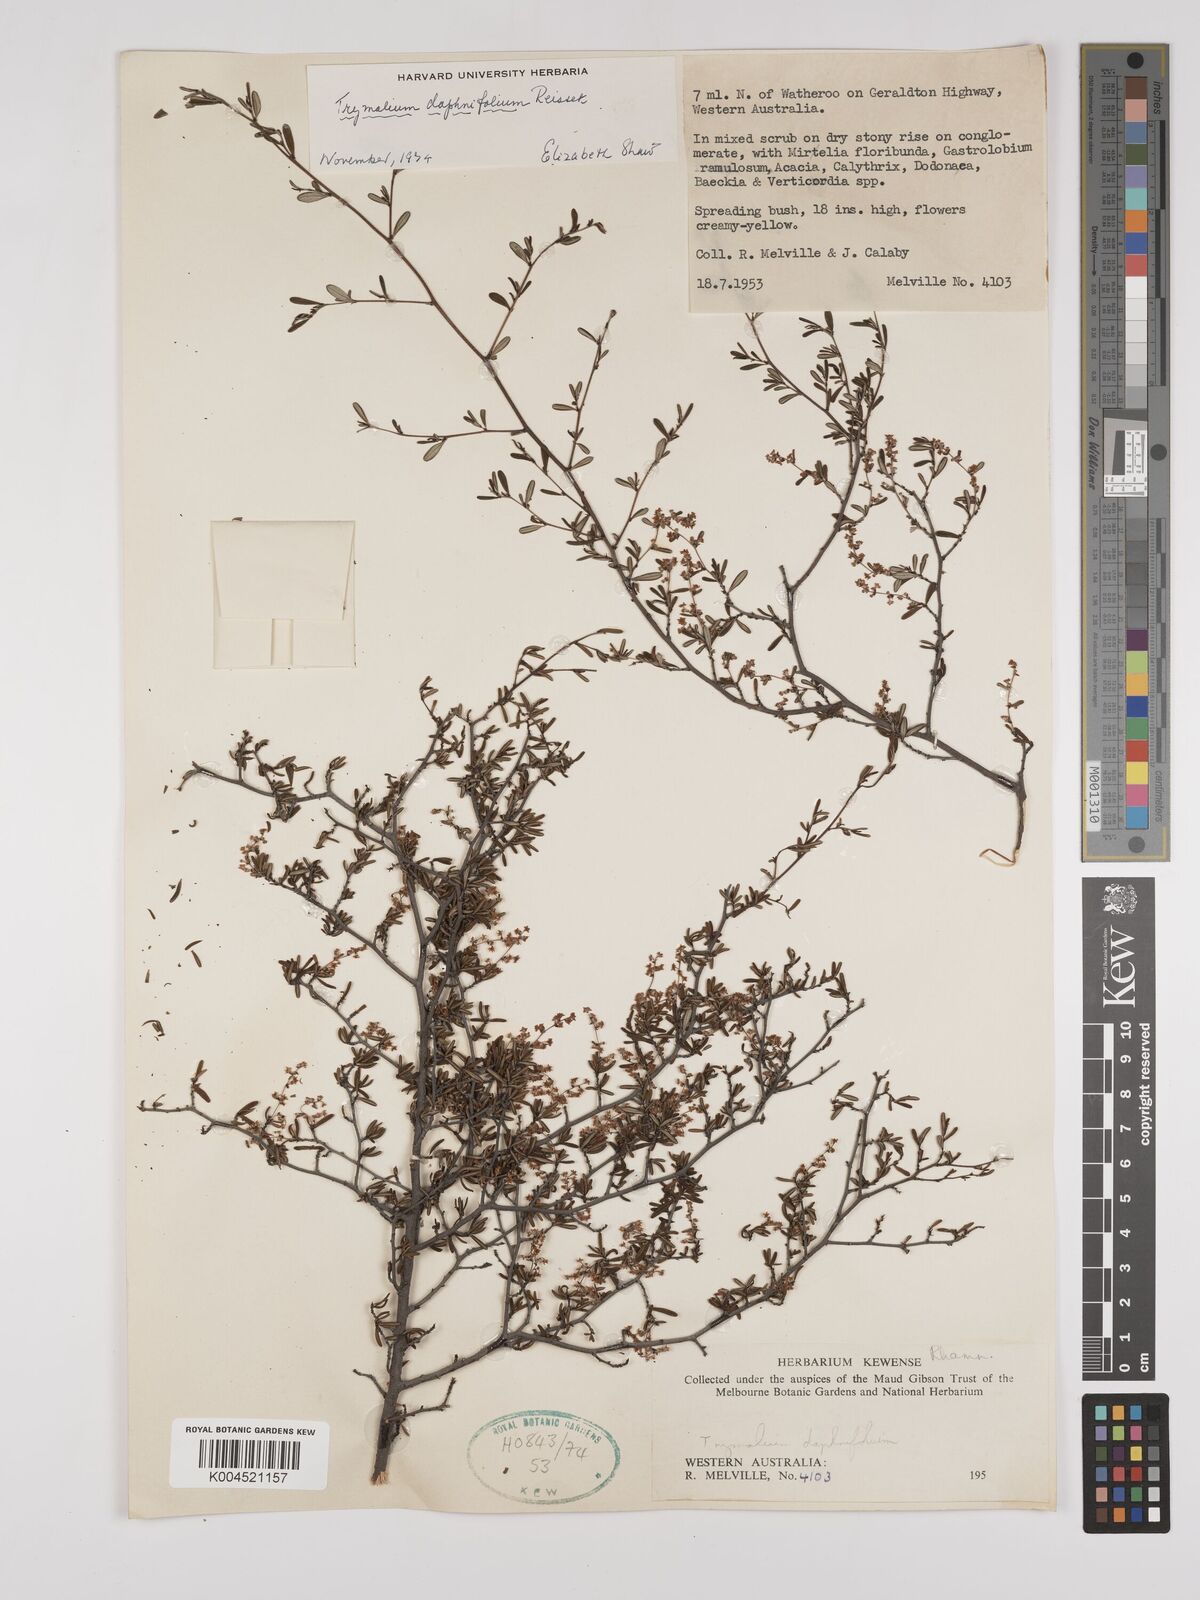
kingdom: Plantae
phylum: Tracheophyta
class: Magnoliopsida
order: Rosales
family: Rhamnaceae
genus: Trymalium
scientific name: Trymalium daphnifolium
